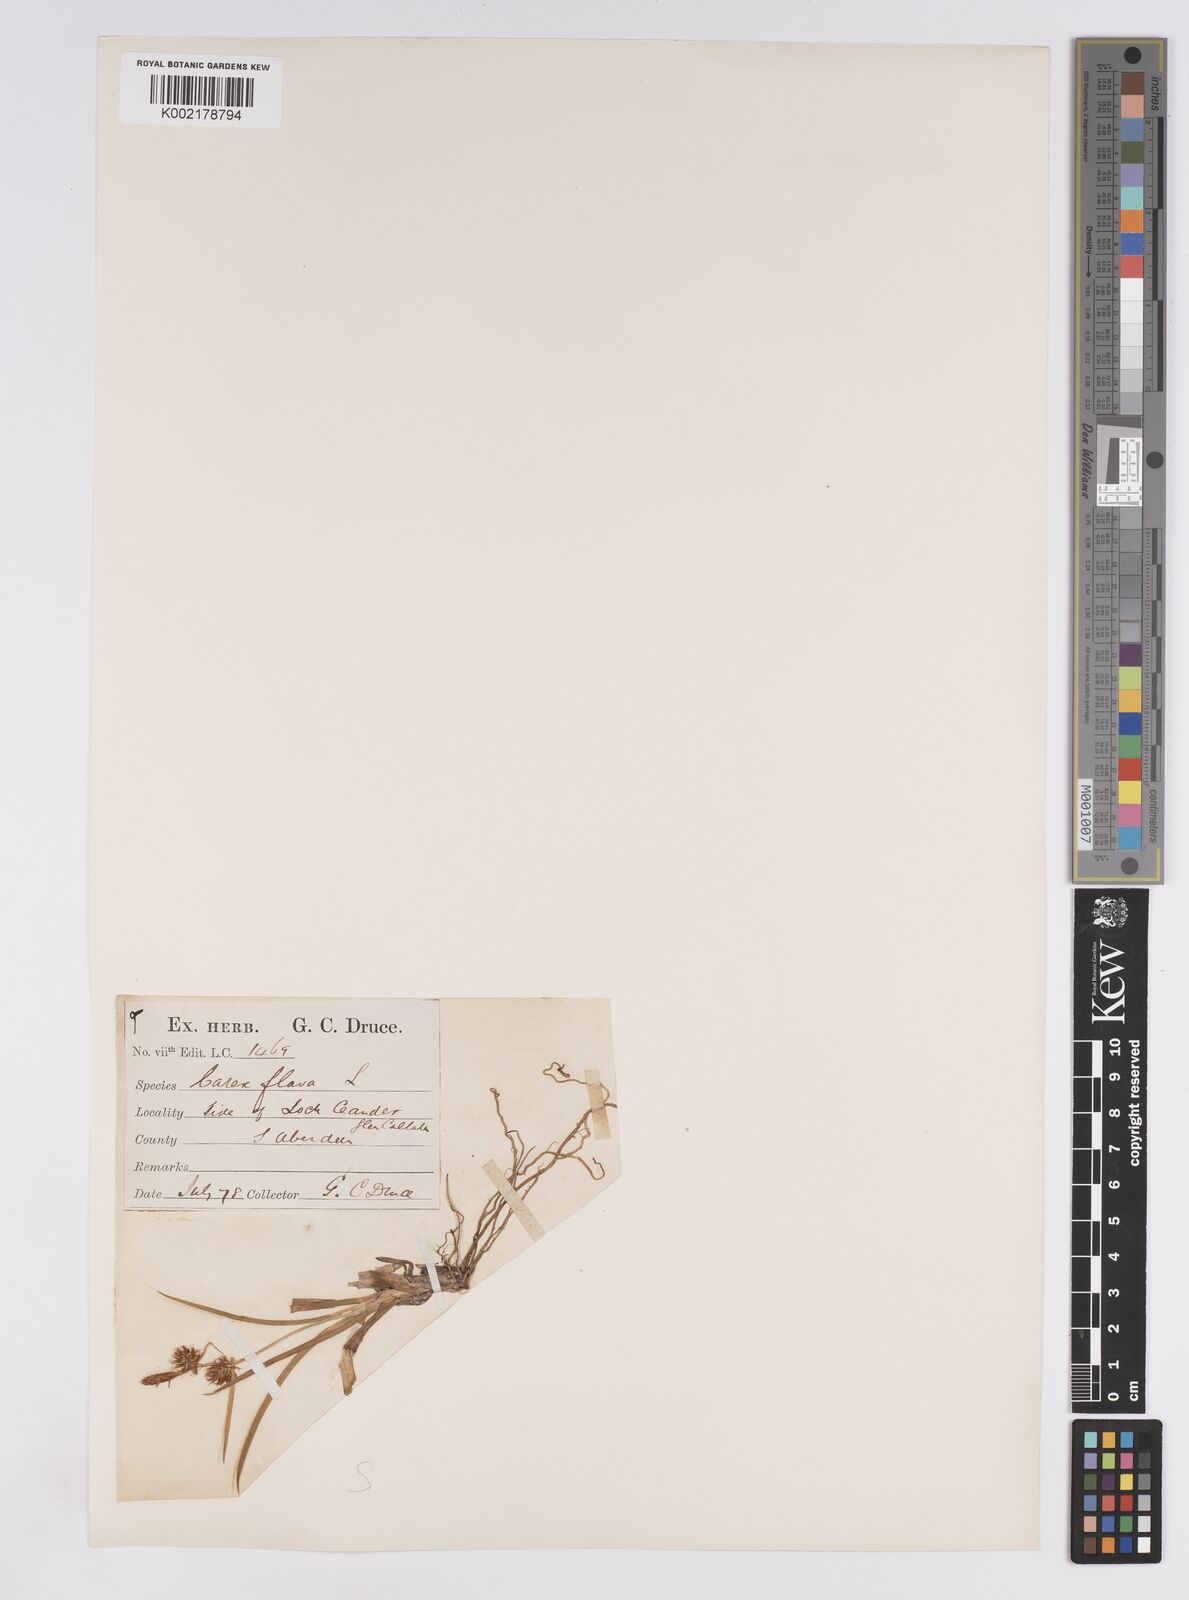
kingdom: Plantae
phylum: Tracheophyta
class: Liliopsida
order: Poales
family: Cyperaceae
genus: Carex
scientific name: Carex lepidocarpa
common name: Long-stalked yellow-sedge
